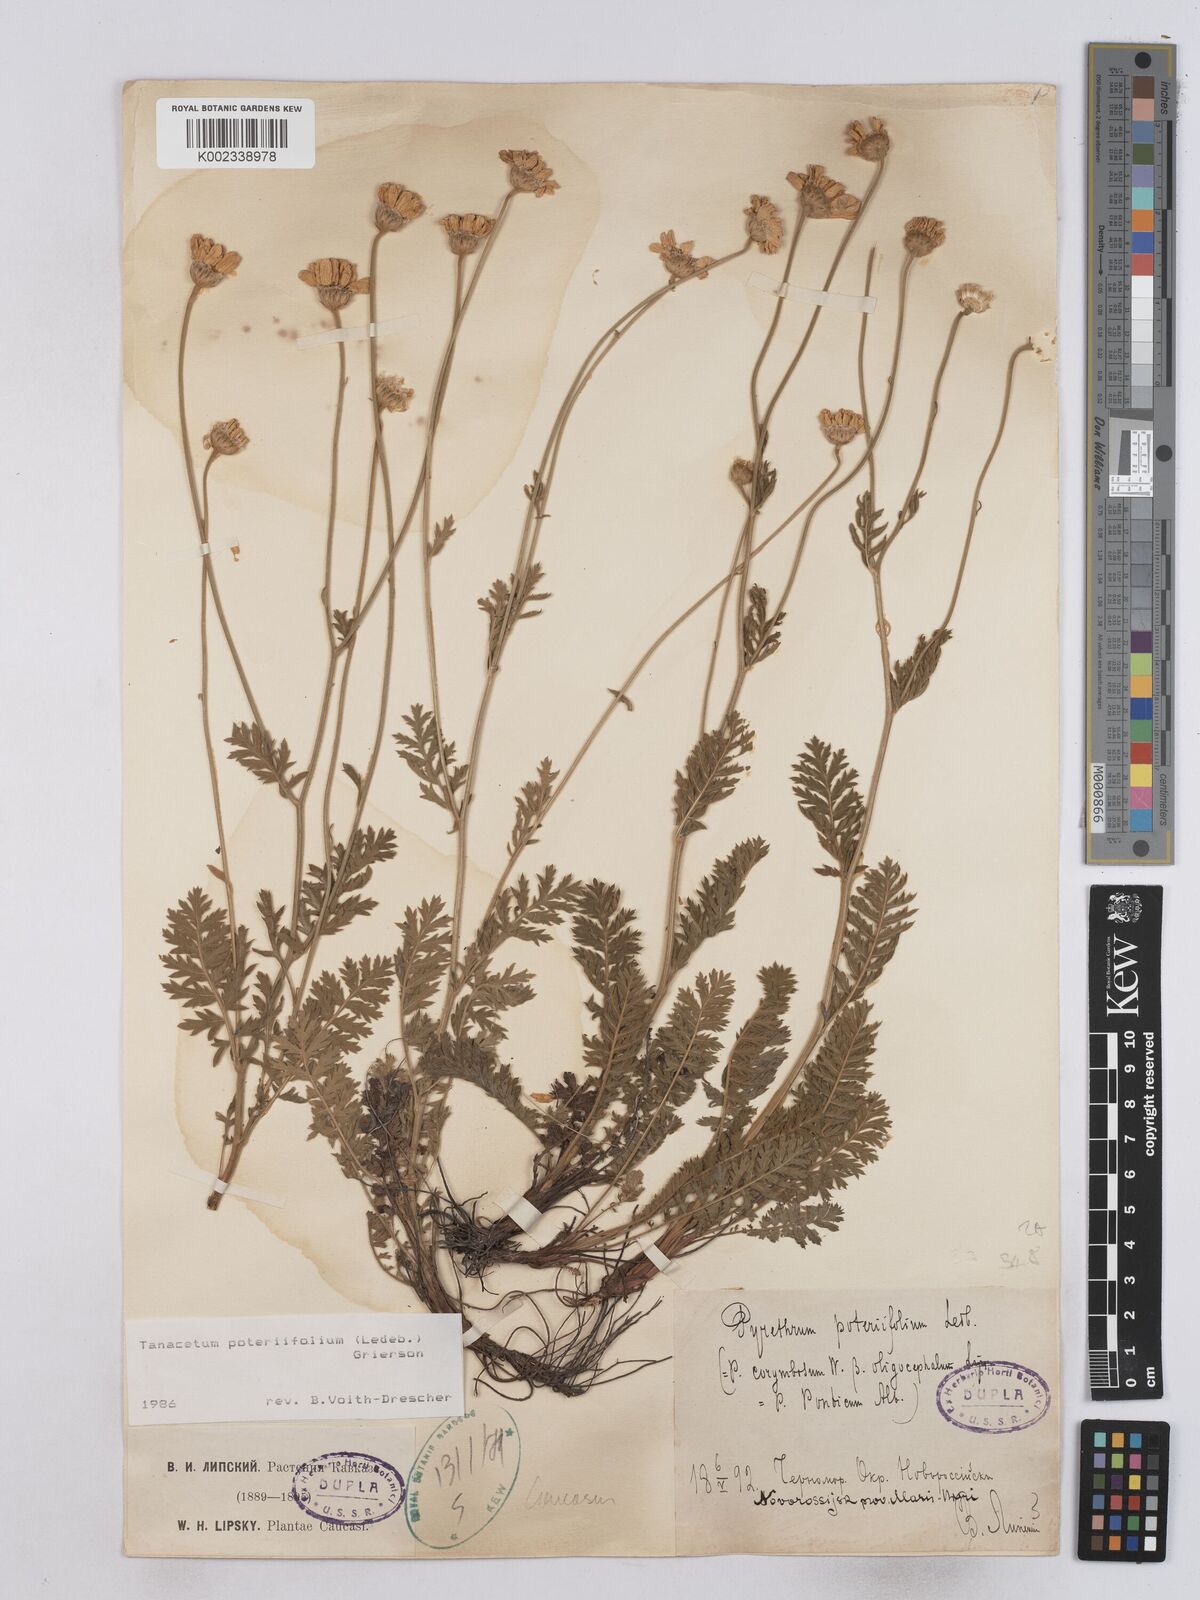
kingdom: Plantae
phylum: Tracheophyta
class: Magnoliopsida
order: Asterales
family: Asteraceae
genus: Tanacetum
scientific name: Tanacetum poteriifolium
